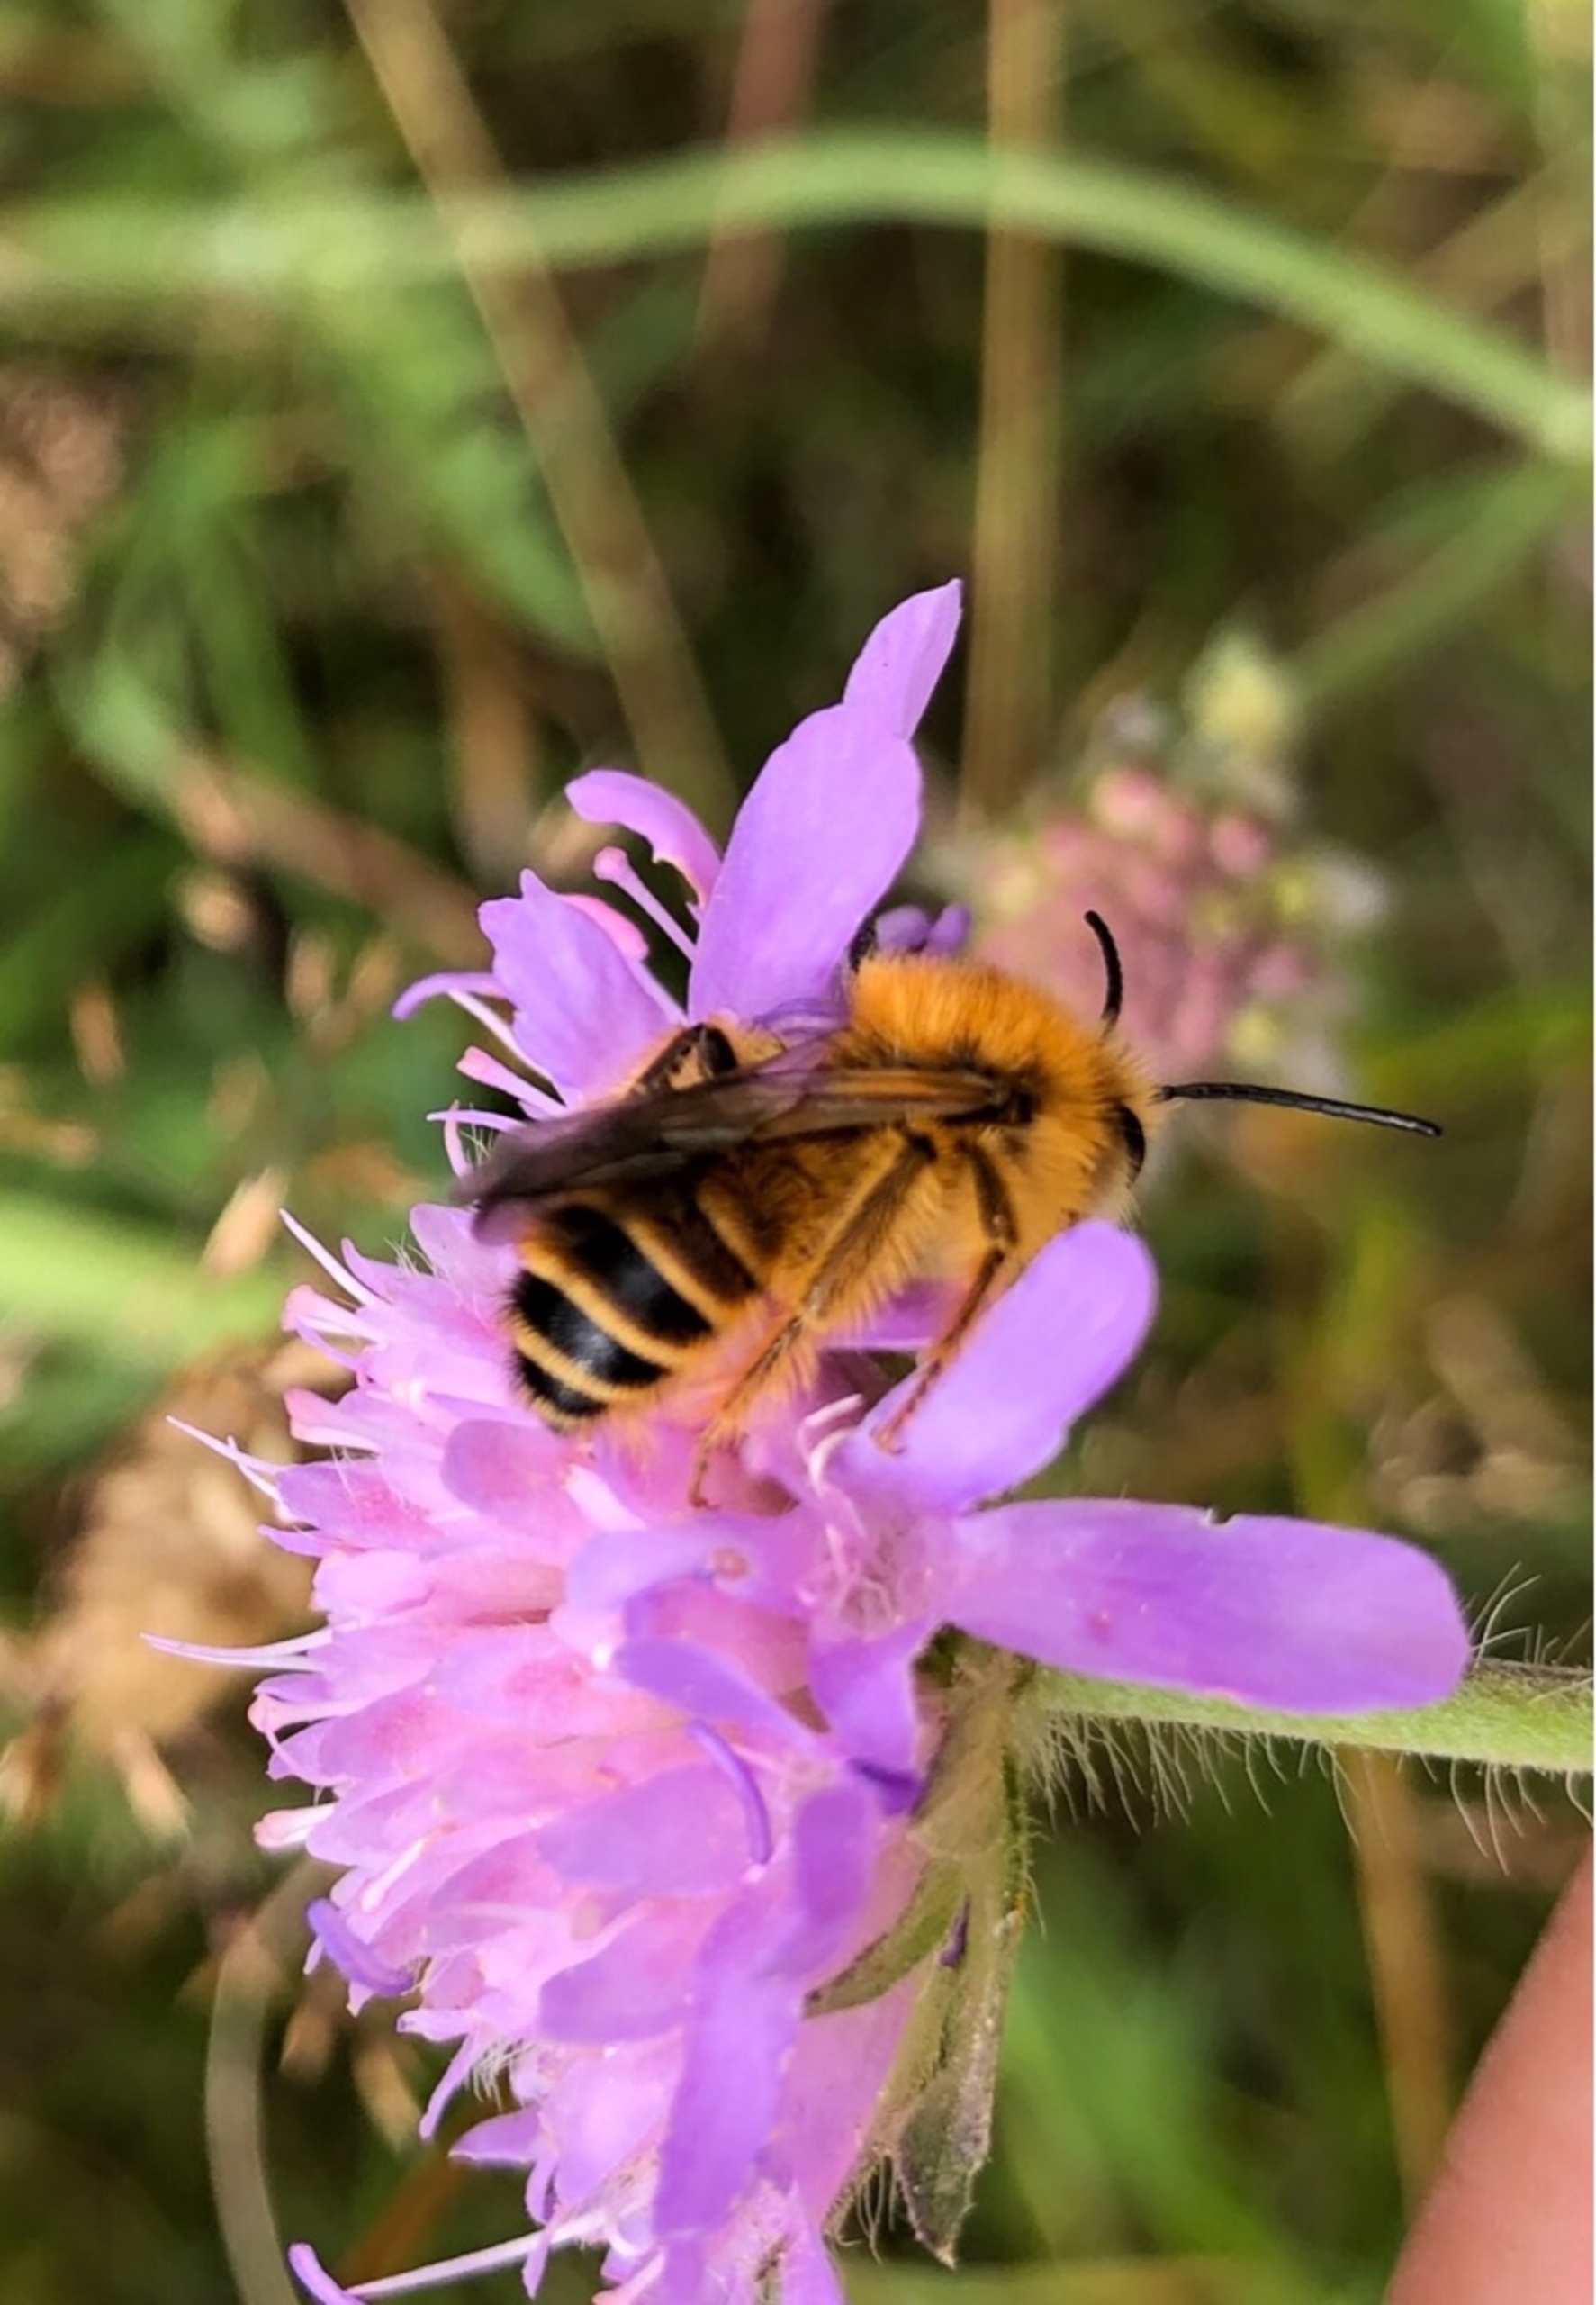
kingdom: Animalia
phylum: Arthropoda
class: Insecta
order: Hymenoptera
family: Melittidae
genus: Dasypoda
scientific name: Dasypoda hirtipes
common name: Pragtbuksebi
